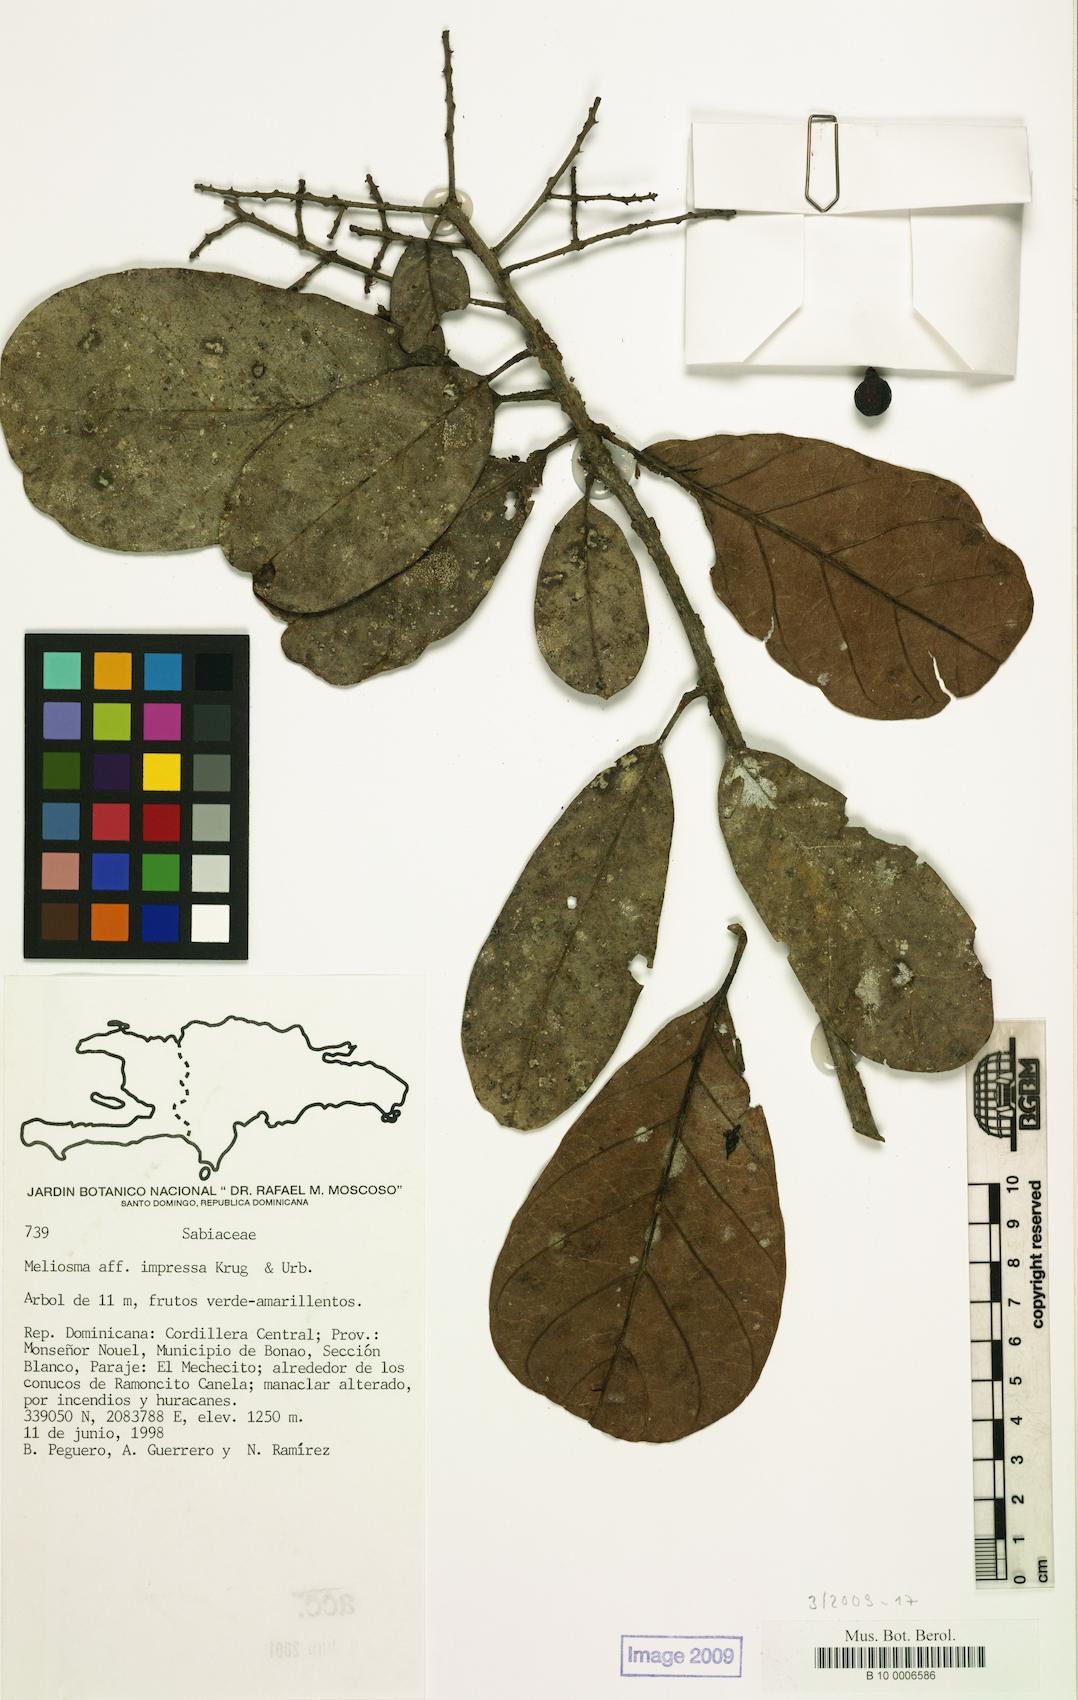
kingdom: Plantae
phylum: Tracheophyta
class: Magnoliopsida
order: Proteales
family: Sabiaceae
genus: Meliosma
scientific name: Meliosma impressa
